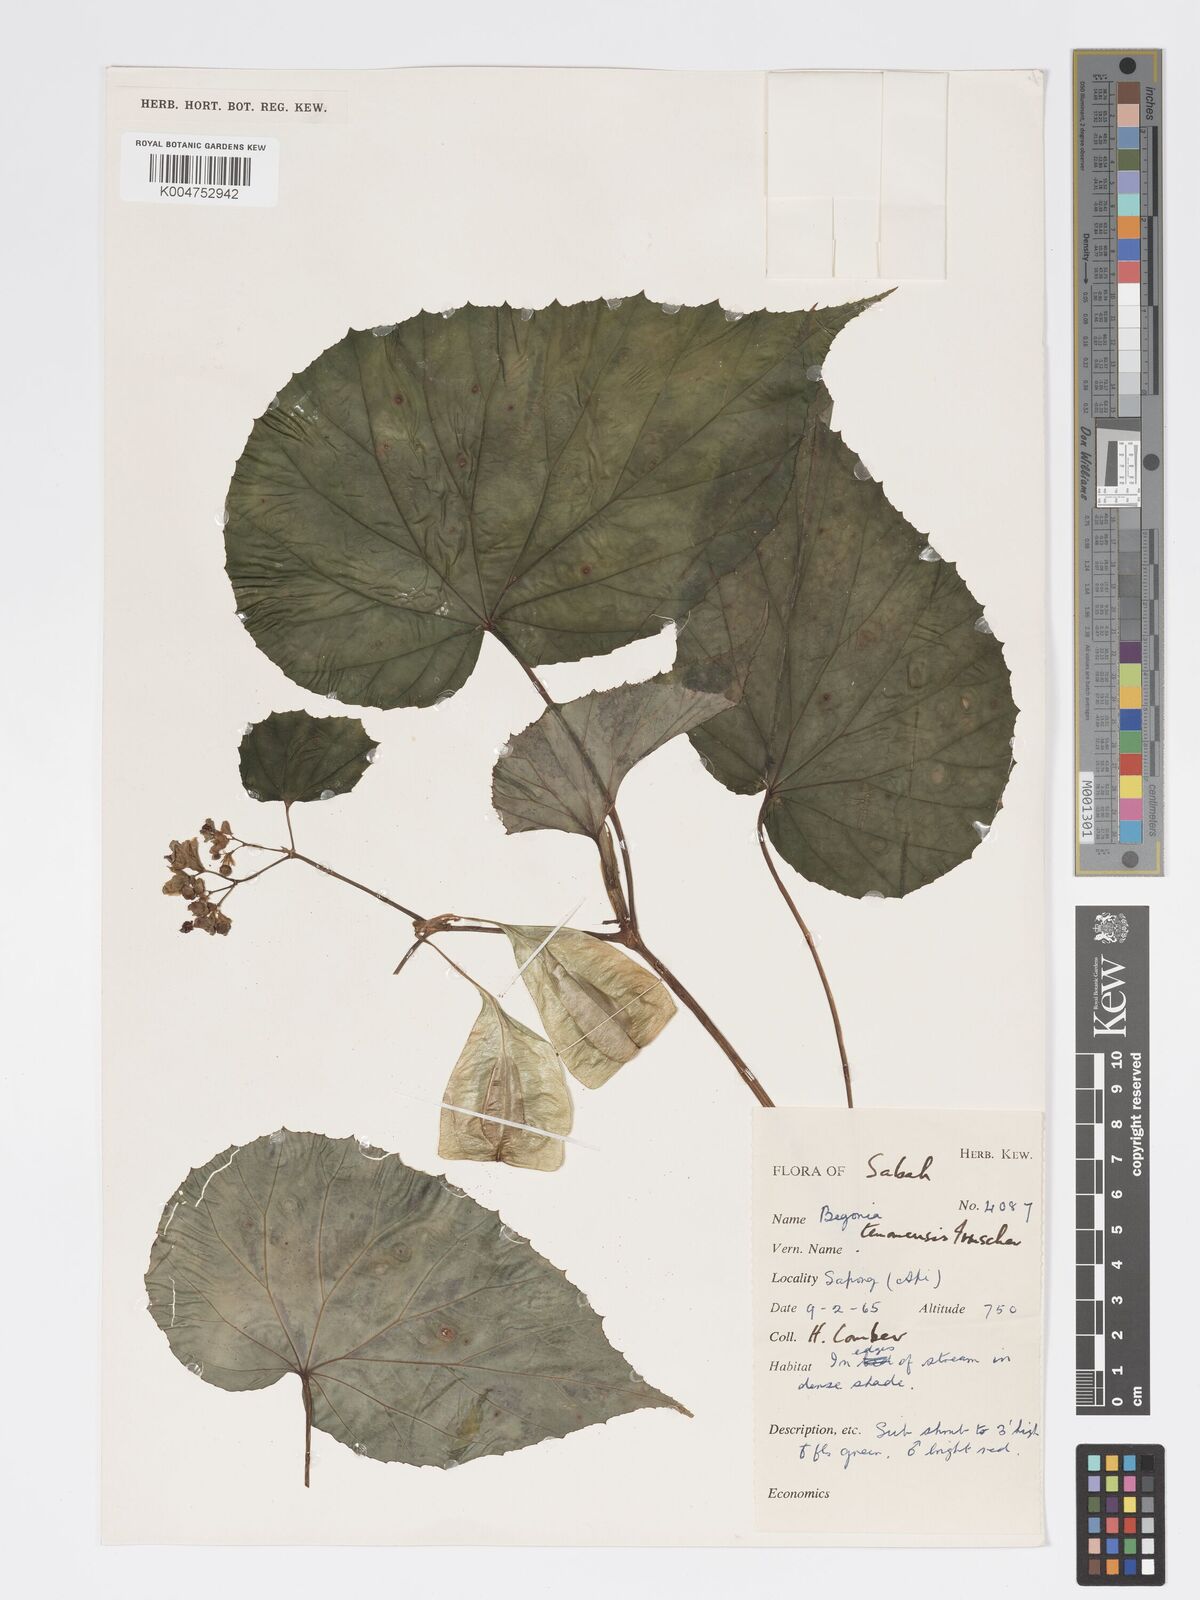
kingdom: Plantae
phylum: Tracheophyta
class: Magnoliopsida
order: Cucurbitales
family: Begoniaceae
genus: Begonia
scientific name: Begonia
